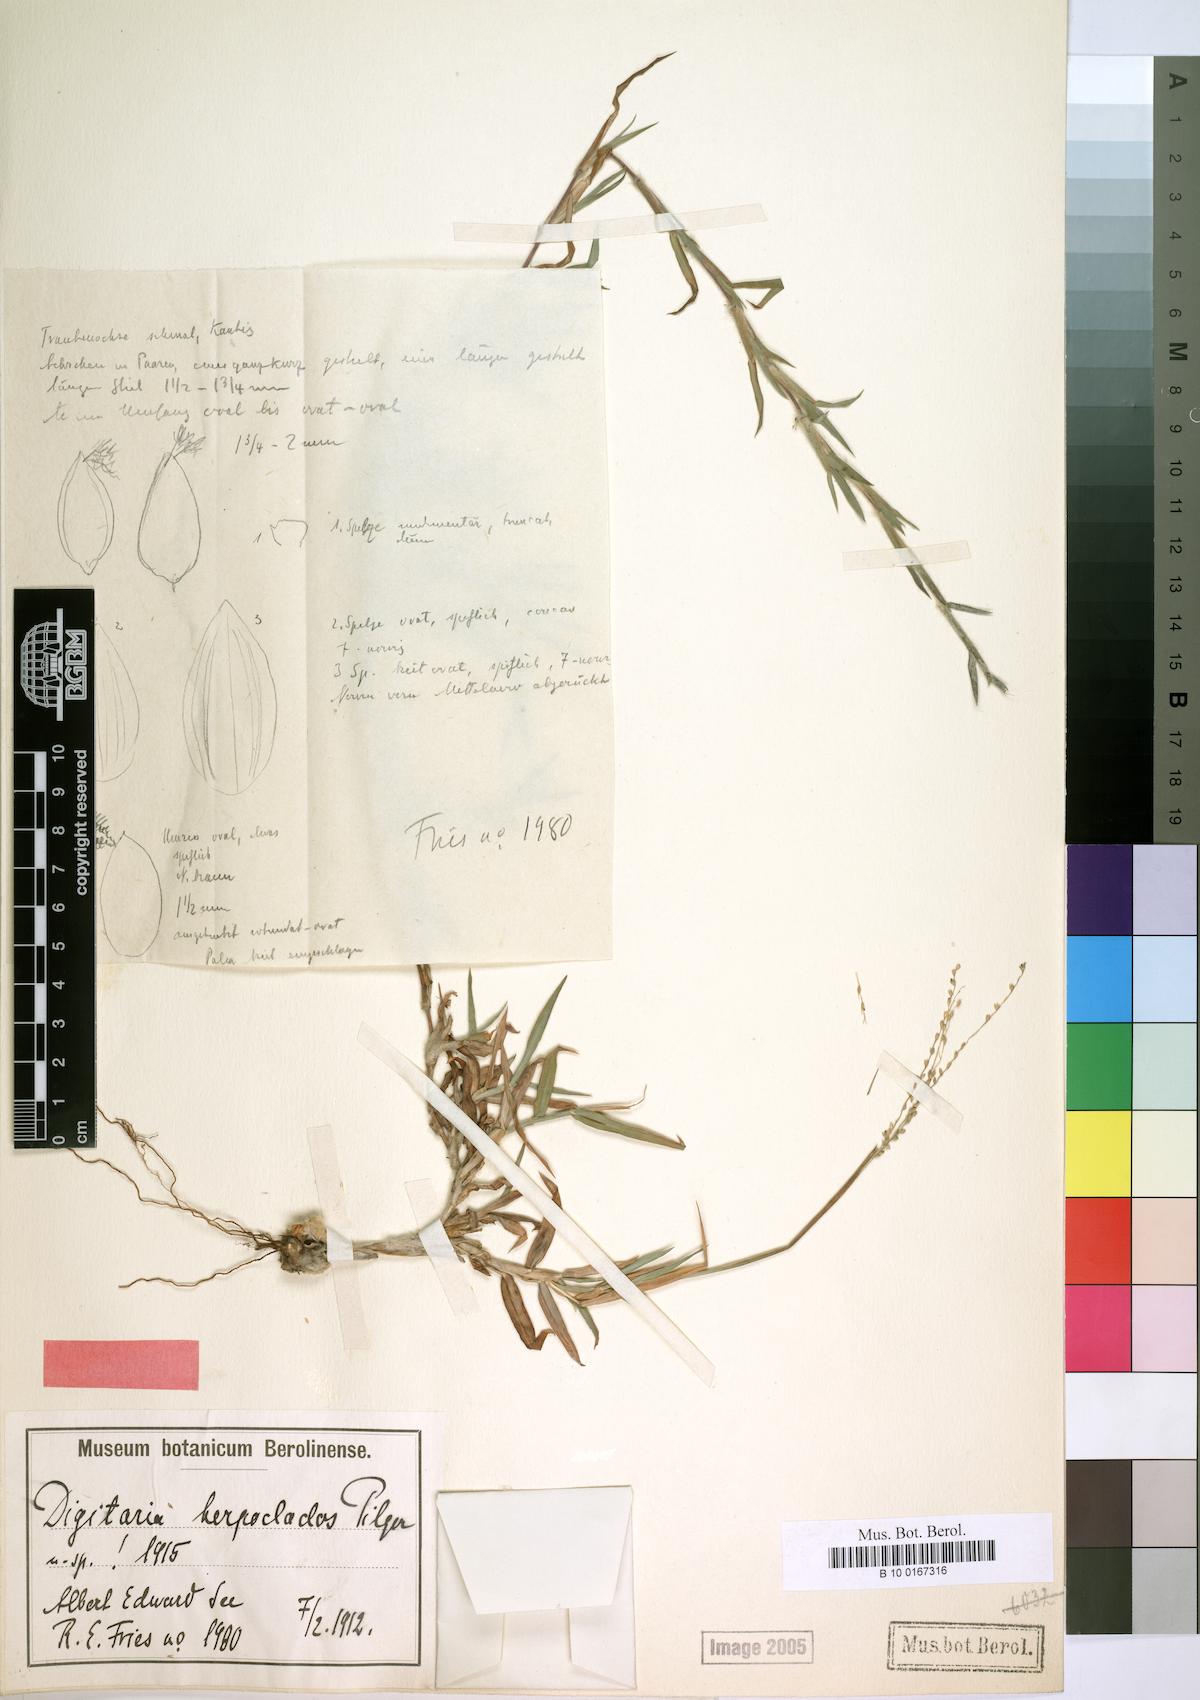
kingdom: Plantae
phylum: Tracheophyta
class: Liliopsida
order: Poales
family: Poaceae
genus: Digitaria
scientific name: Digitaria gazensis
